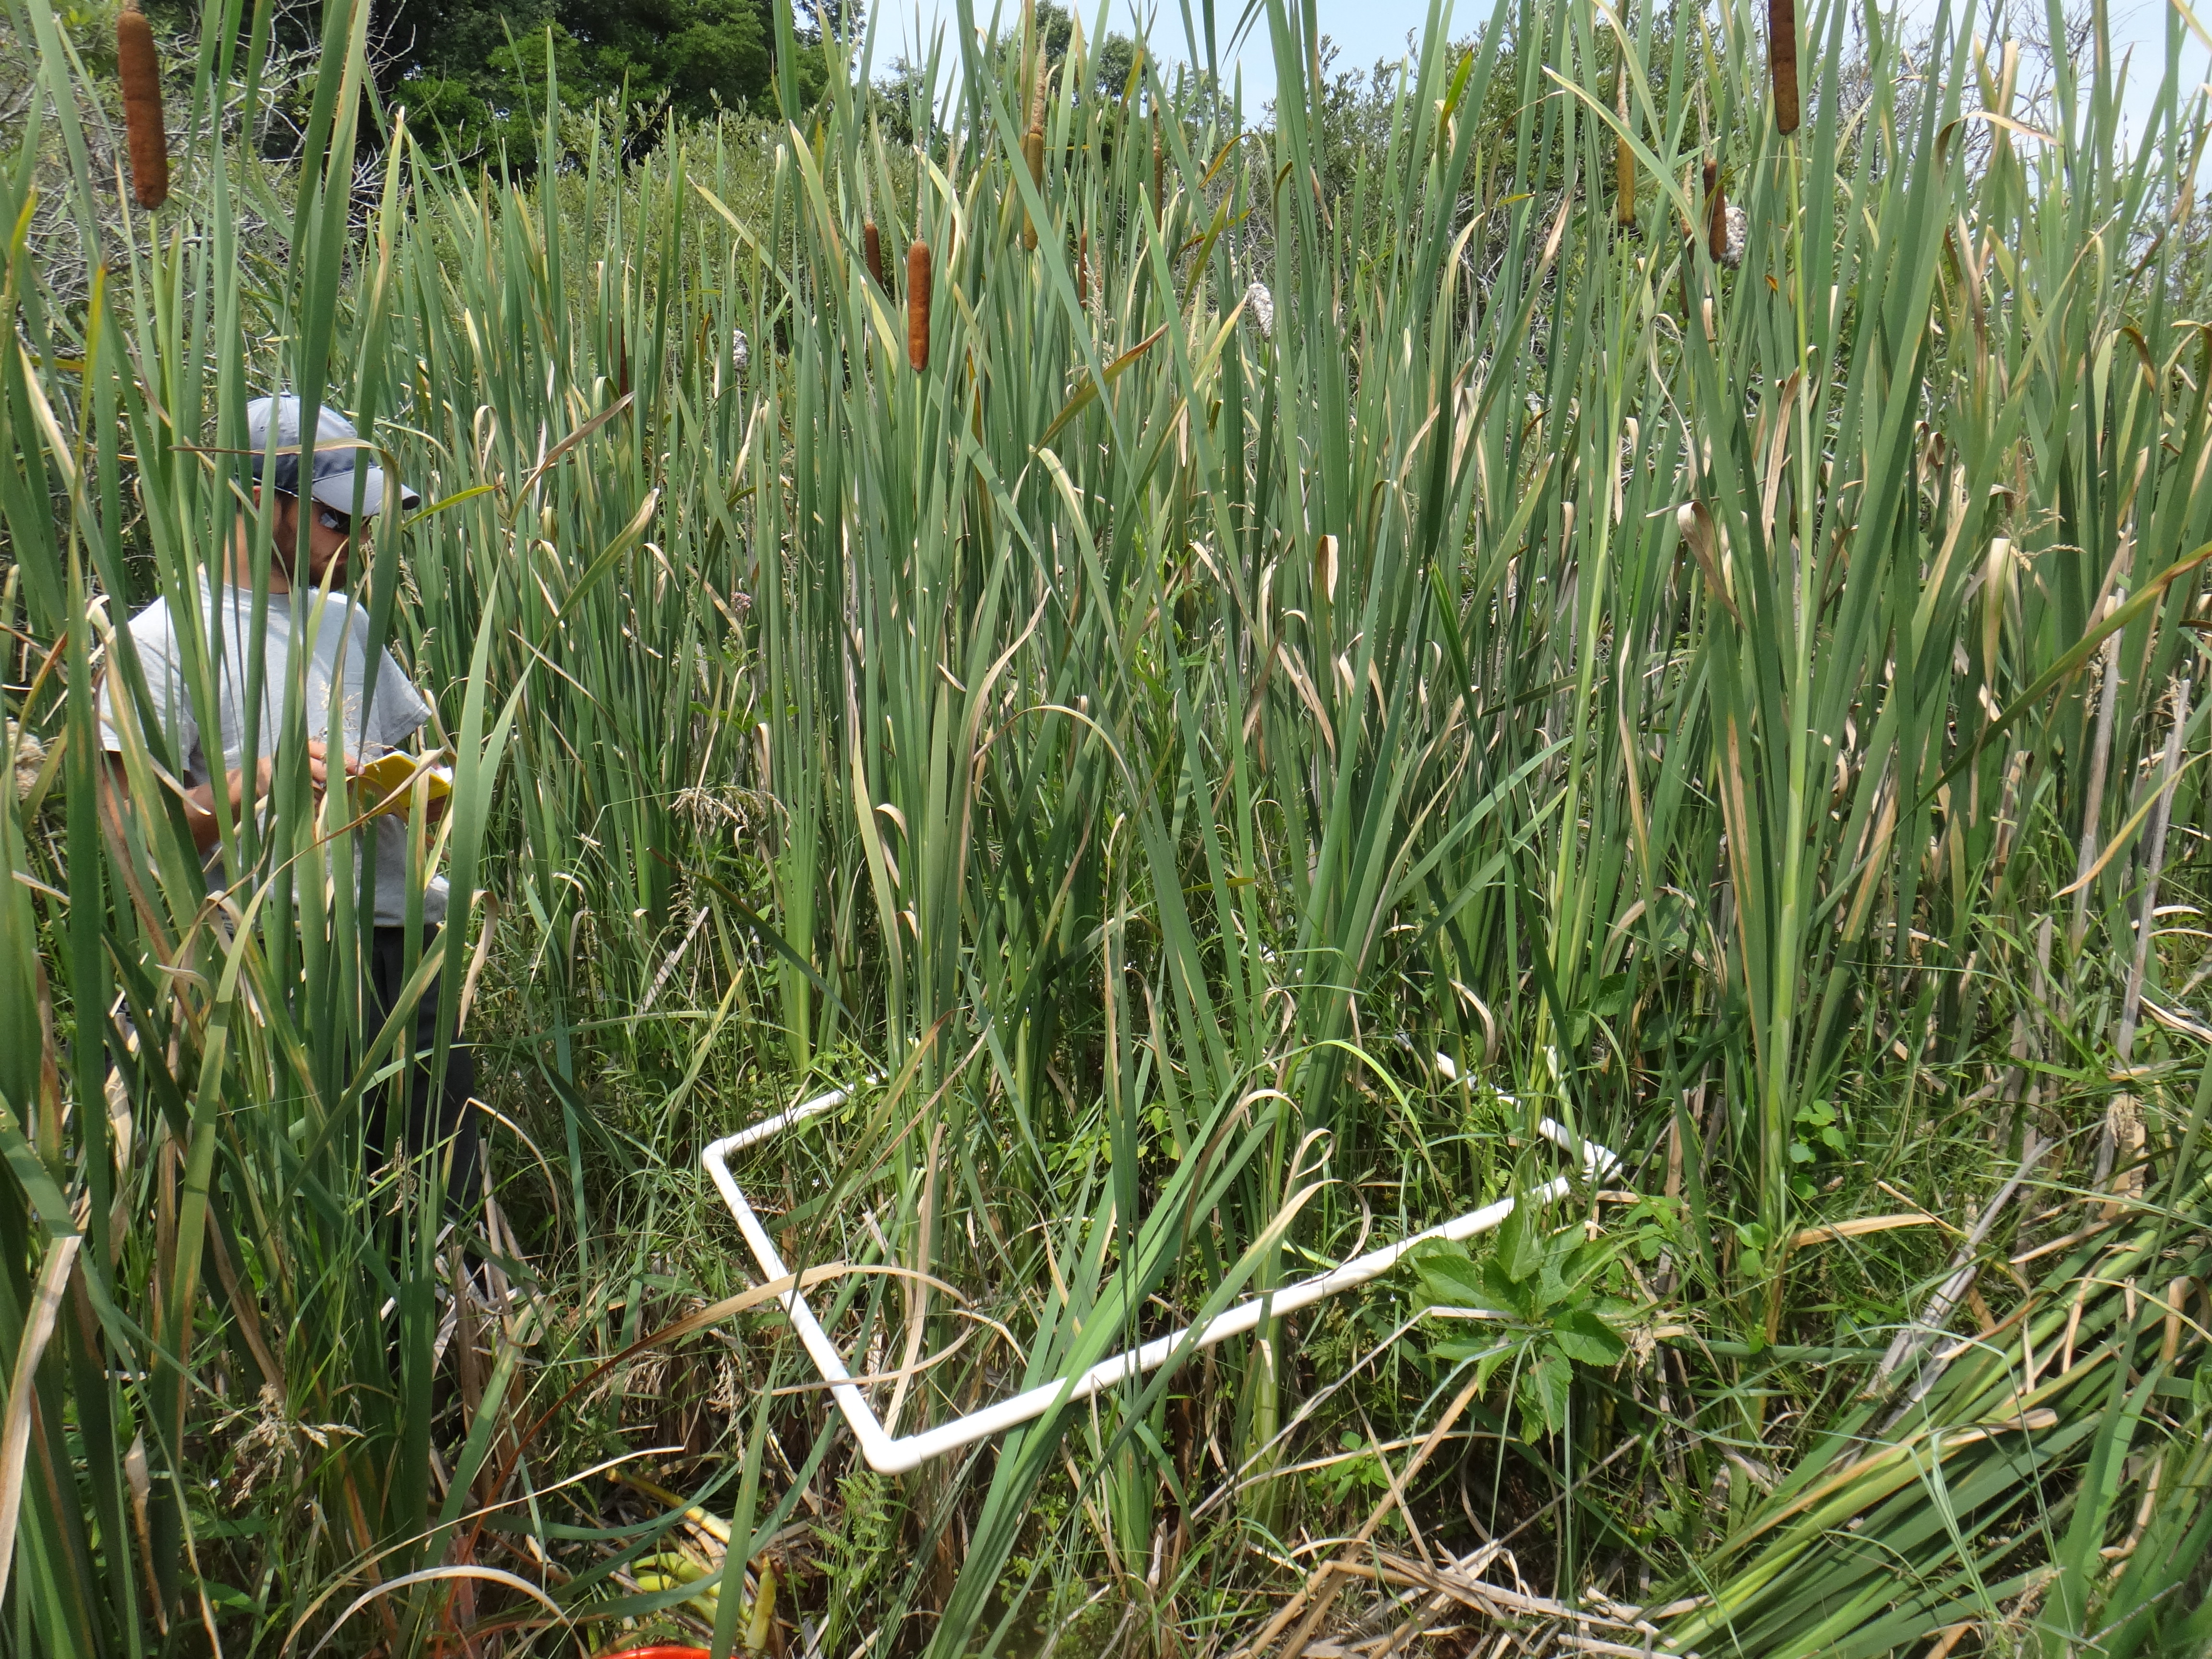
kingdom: Plantae
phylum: Tracheophyta
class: Magnoliopsida
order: Lamiales
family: Lamiaceae
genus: Lycopus
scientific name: Lycopus uniflorus
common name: Northern bugleweed
